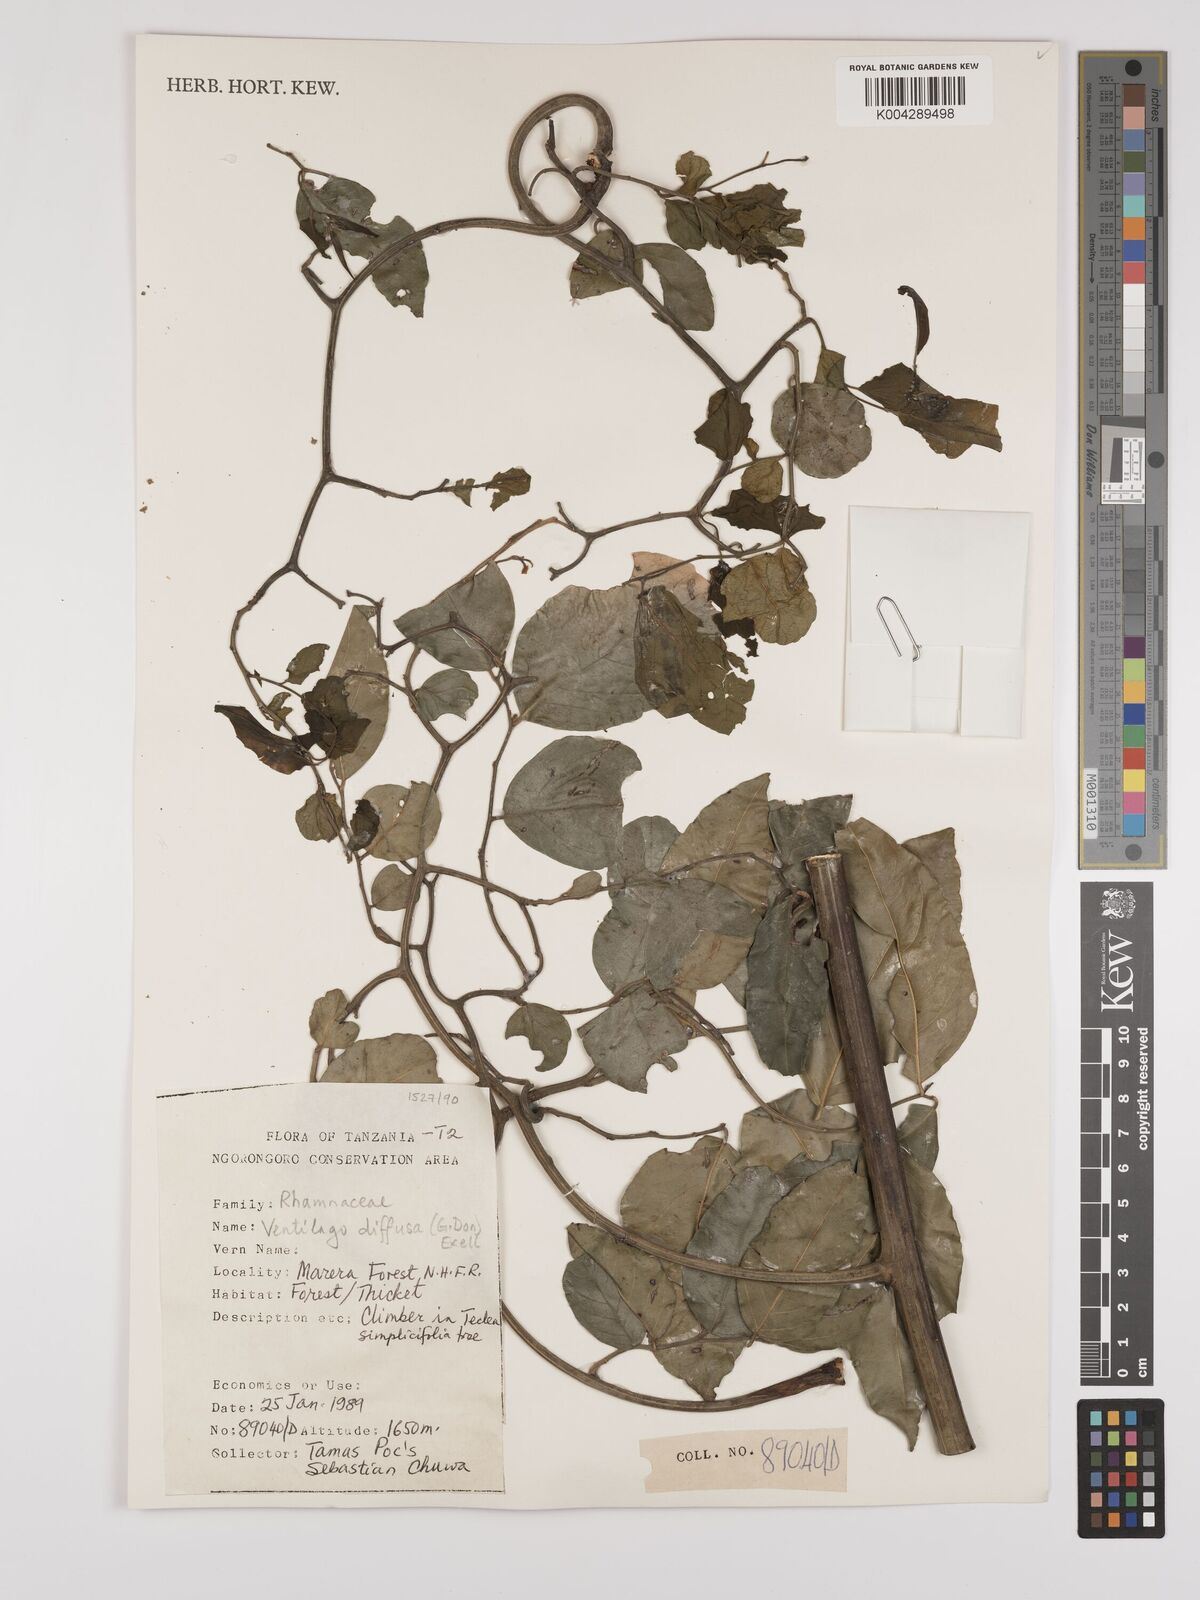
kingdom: Plantae
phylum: Tracheophyta
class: Magnoliopsida
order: Rosales
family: Rhamnaceae
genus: Ventilago
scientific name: Ventilago diffusa
